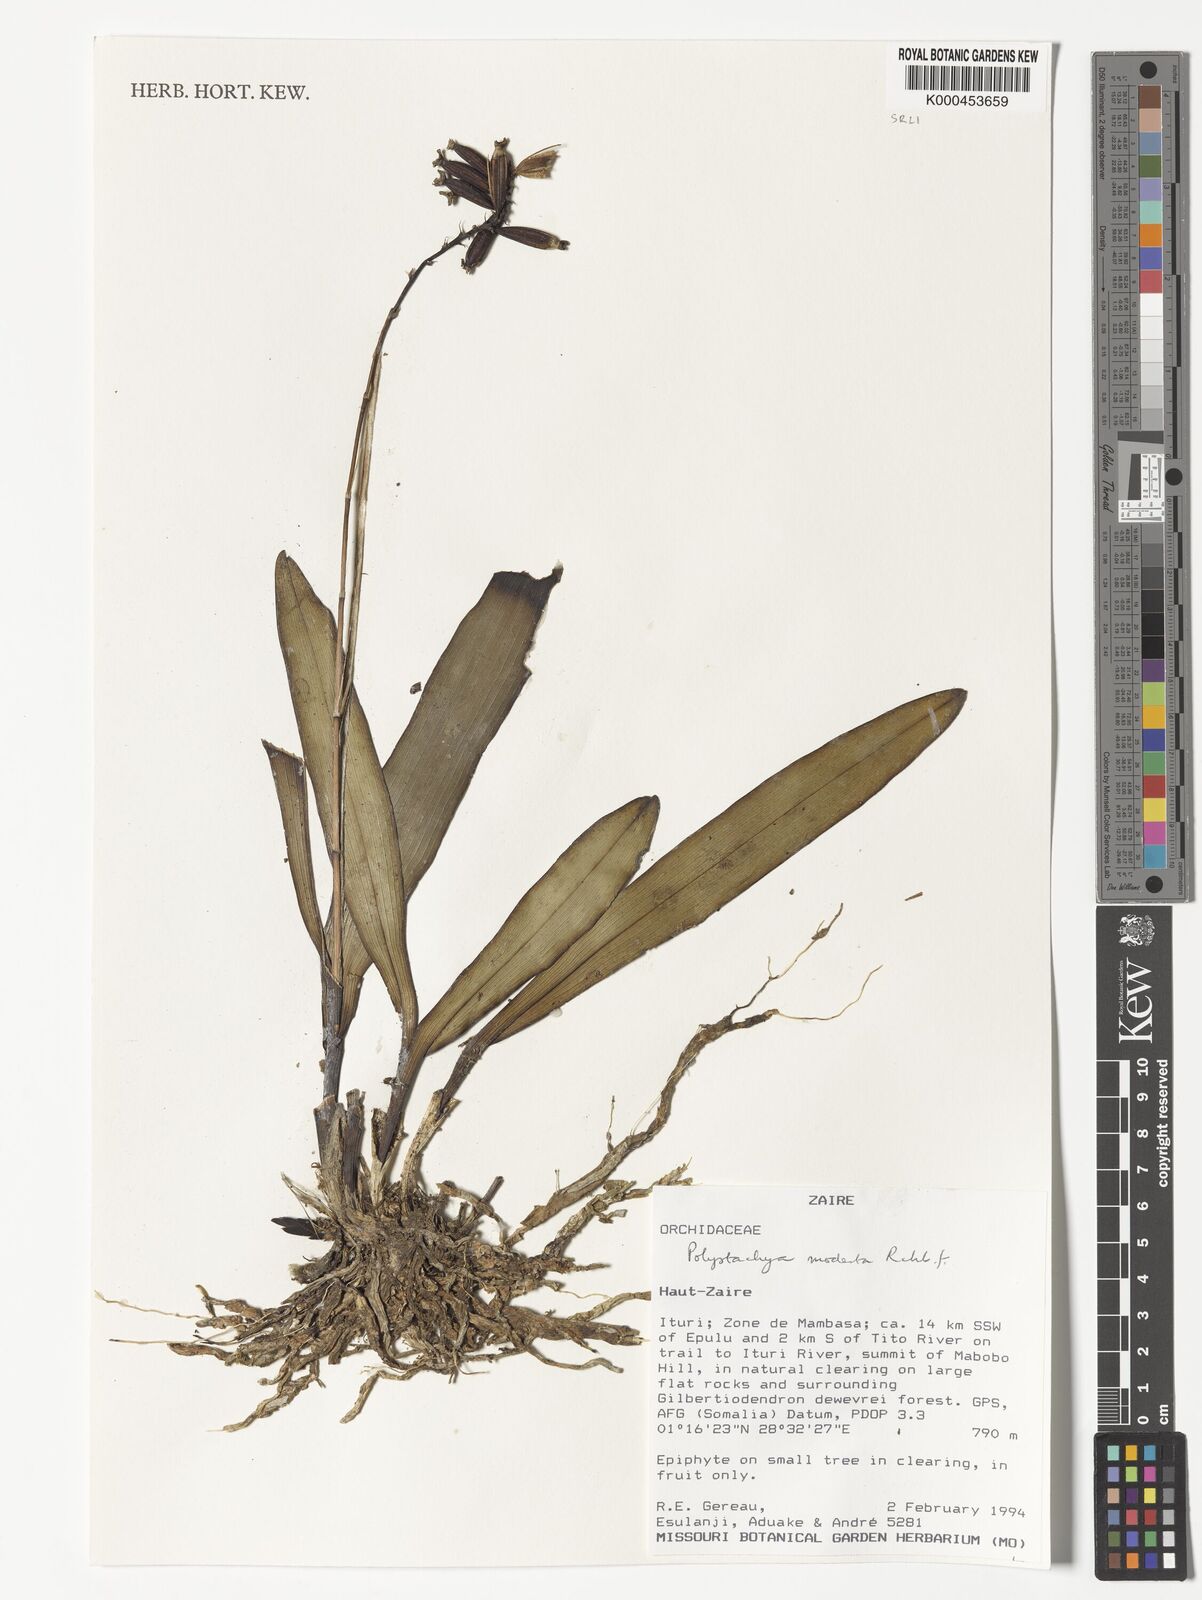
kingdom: Plantae
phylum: Tracheophyta
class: Liliopsida
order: Asparagales
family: Orchidaceae
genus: Polystachya
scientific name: Polystachya modesta
